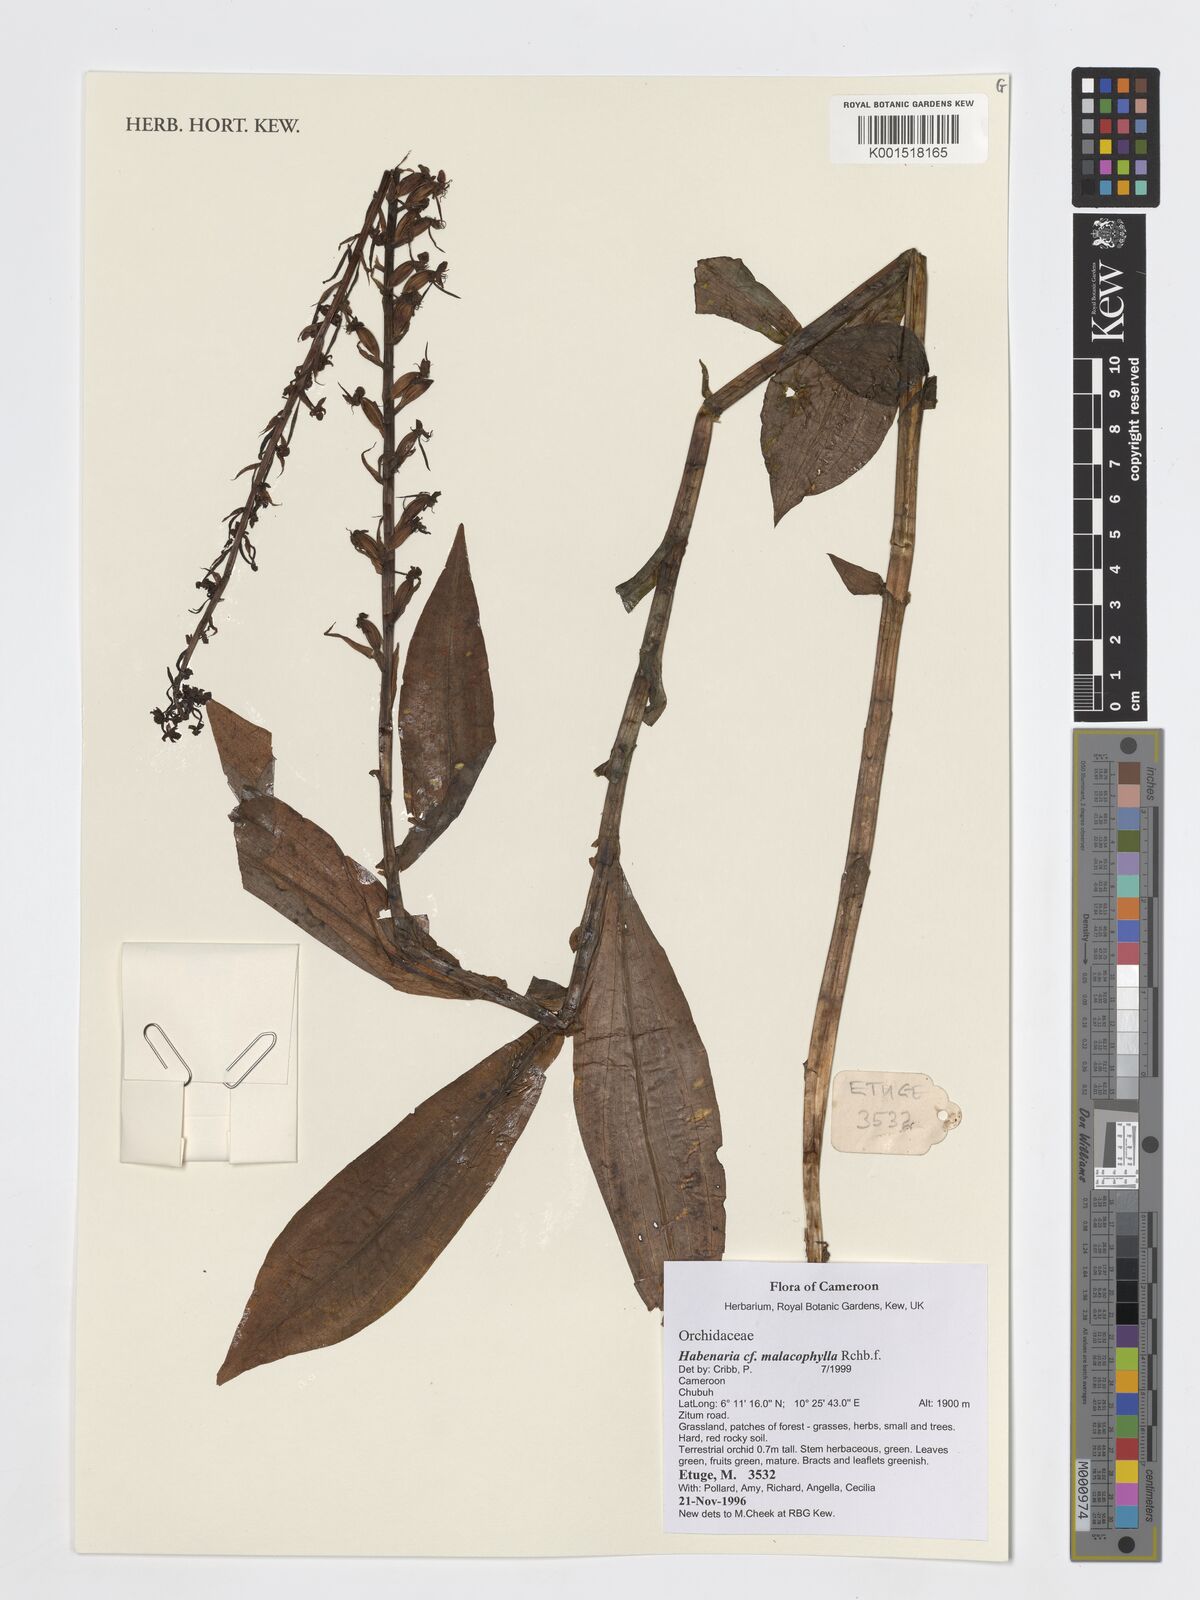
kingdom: Plantae
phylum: Tracheophyta
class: Liliopsida
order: Asparagales
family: Orchidaceae
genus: Habenaria
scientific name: Habenaria malacophylla
